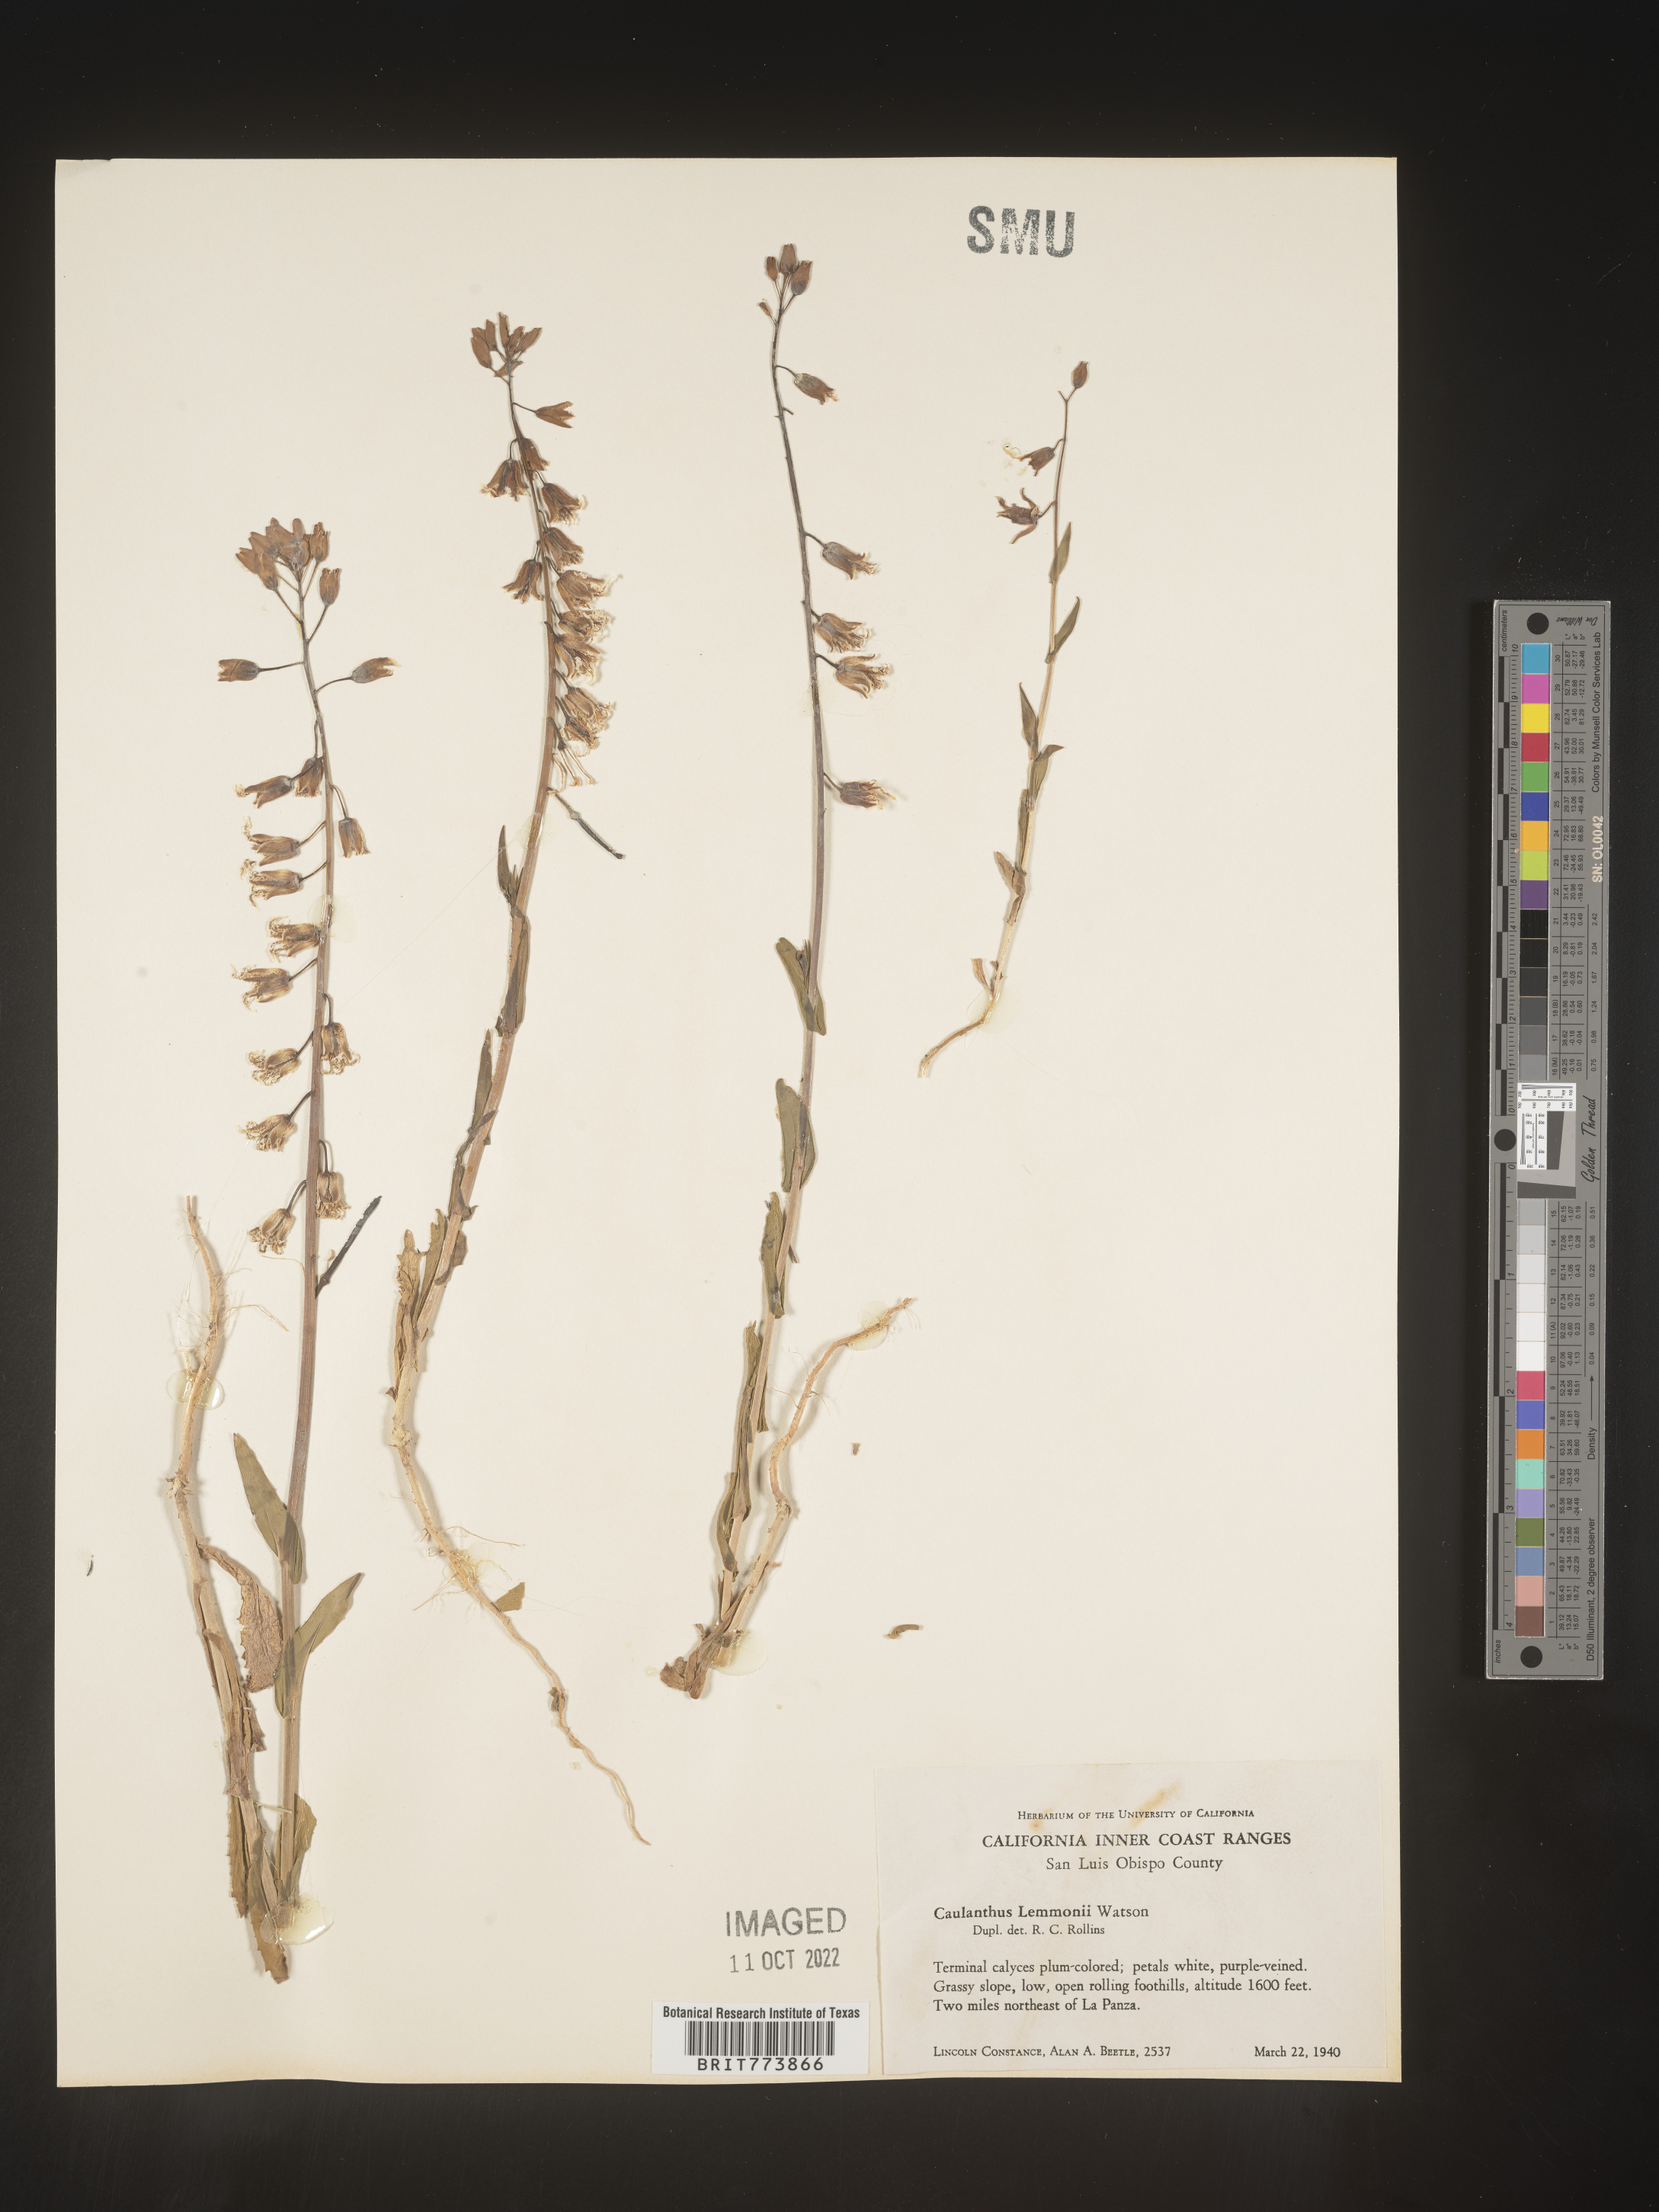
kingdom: Plantae
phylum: Tracheophyta
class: Magnoliopsida
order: Brassicales
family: Brassicaceae
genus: Streptanthus
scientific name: Streptanthus
